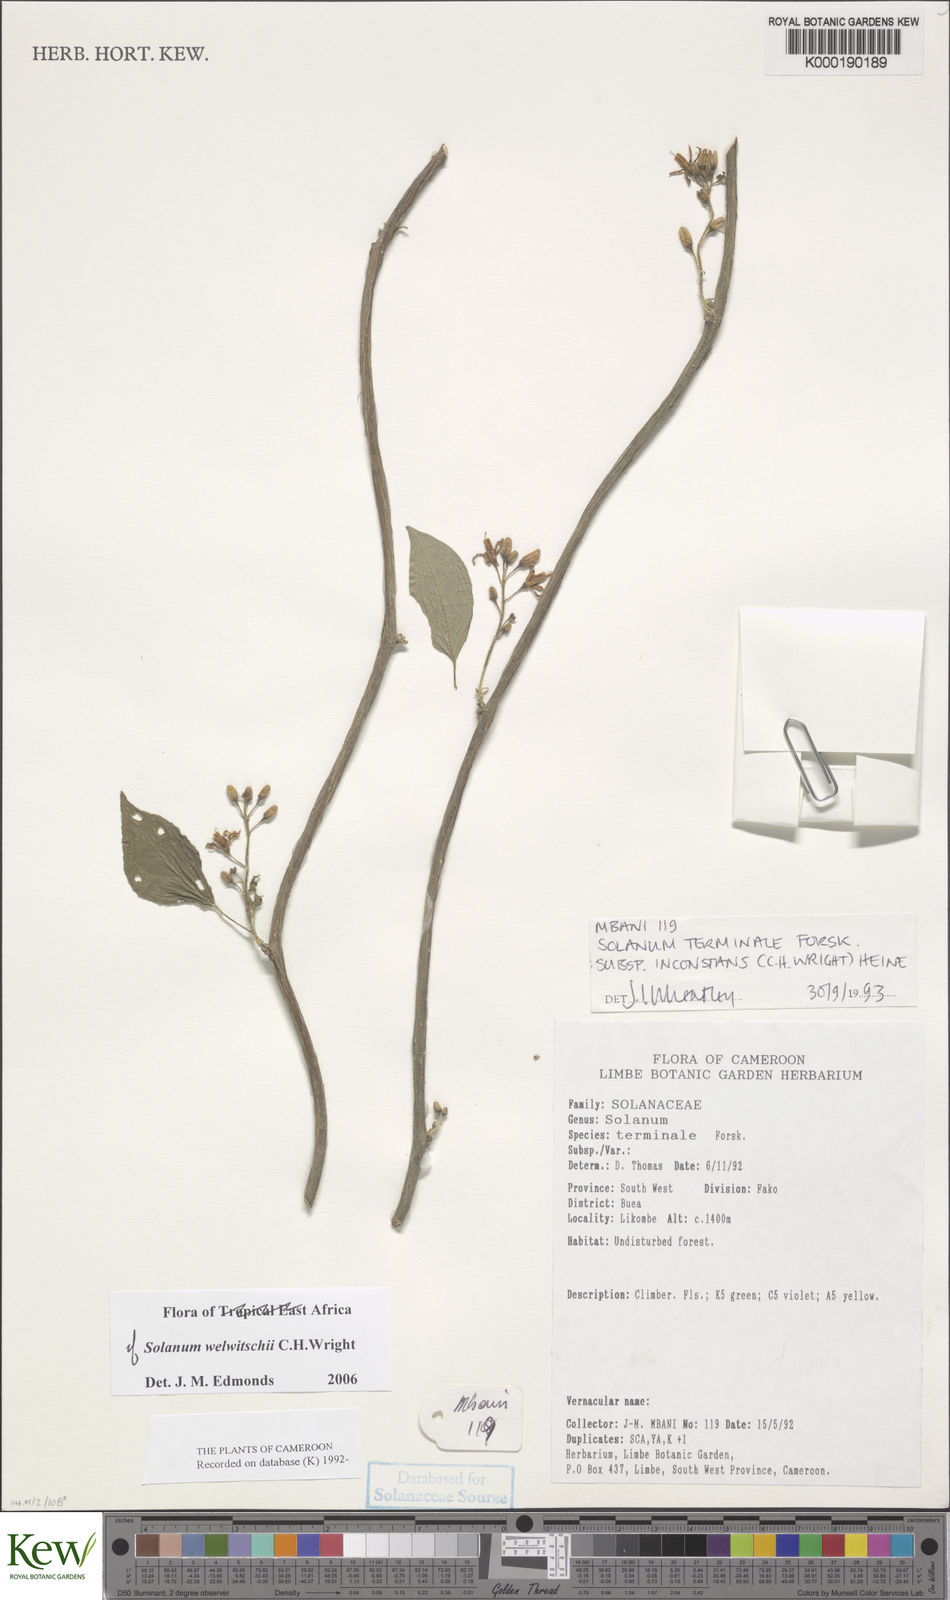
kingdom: Plantae
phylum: Tracheophyta
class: Magnoliopsida
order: Solanales
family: Solanaceae
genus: Solanum
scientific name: Solanum terminale
